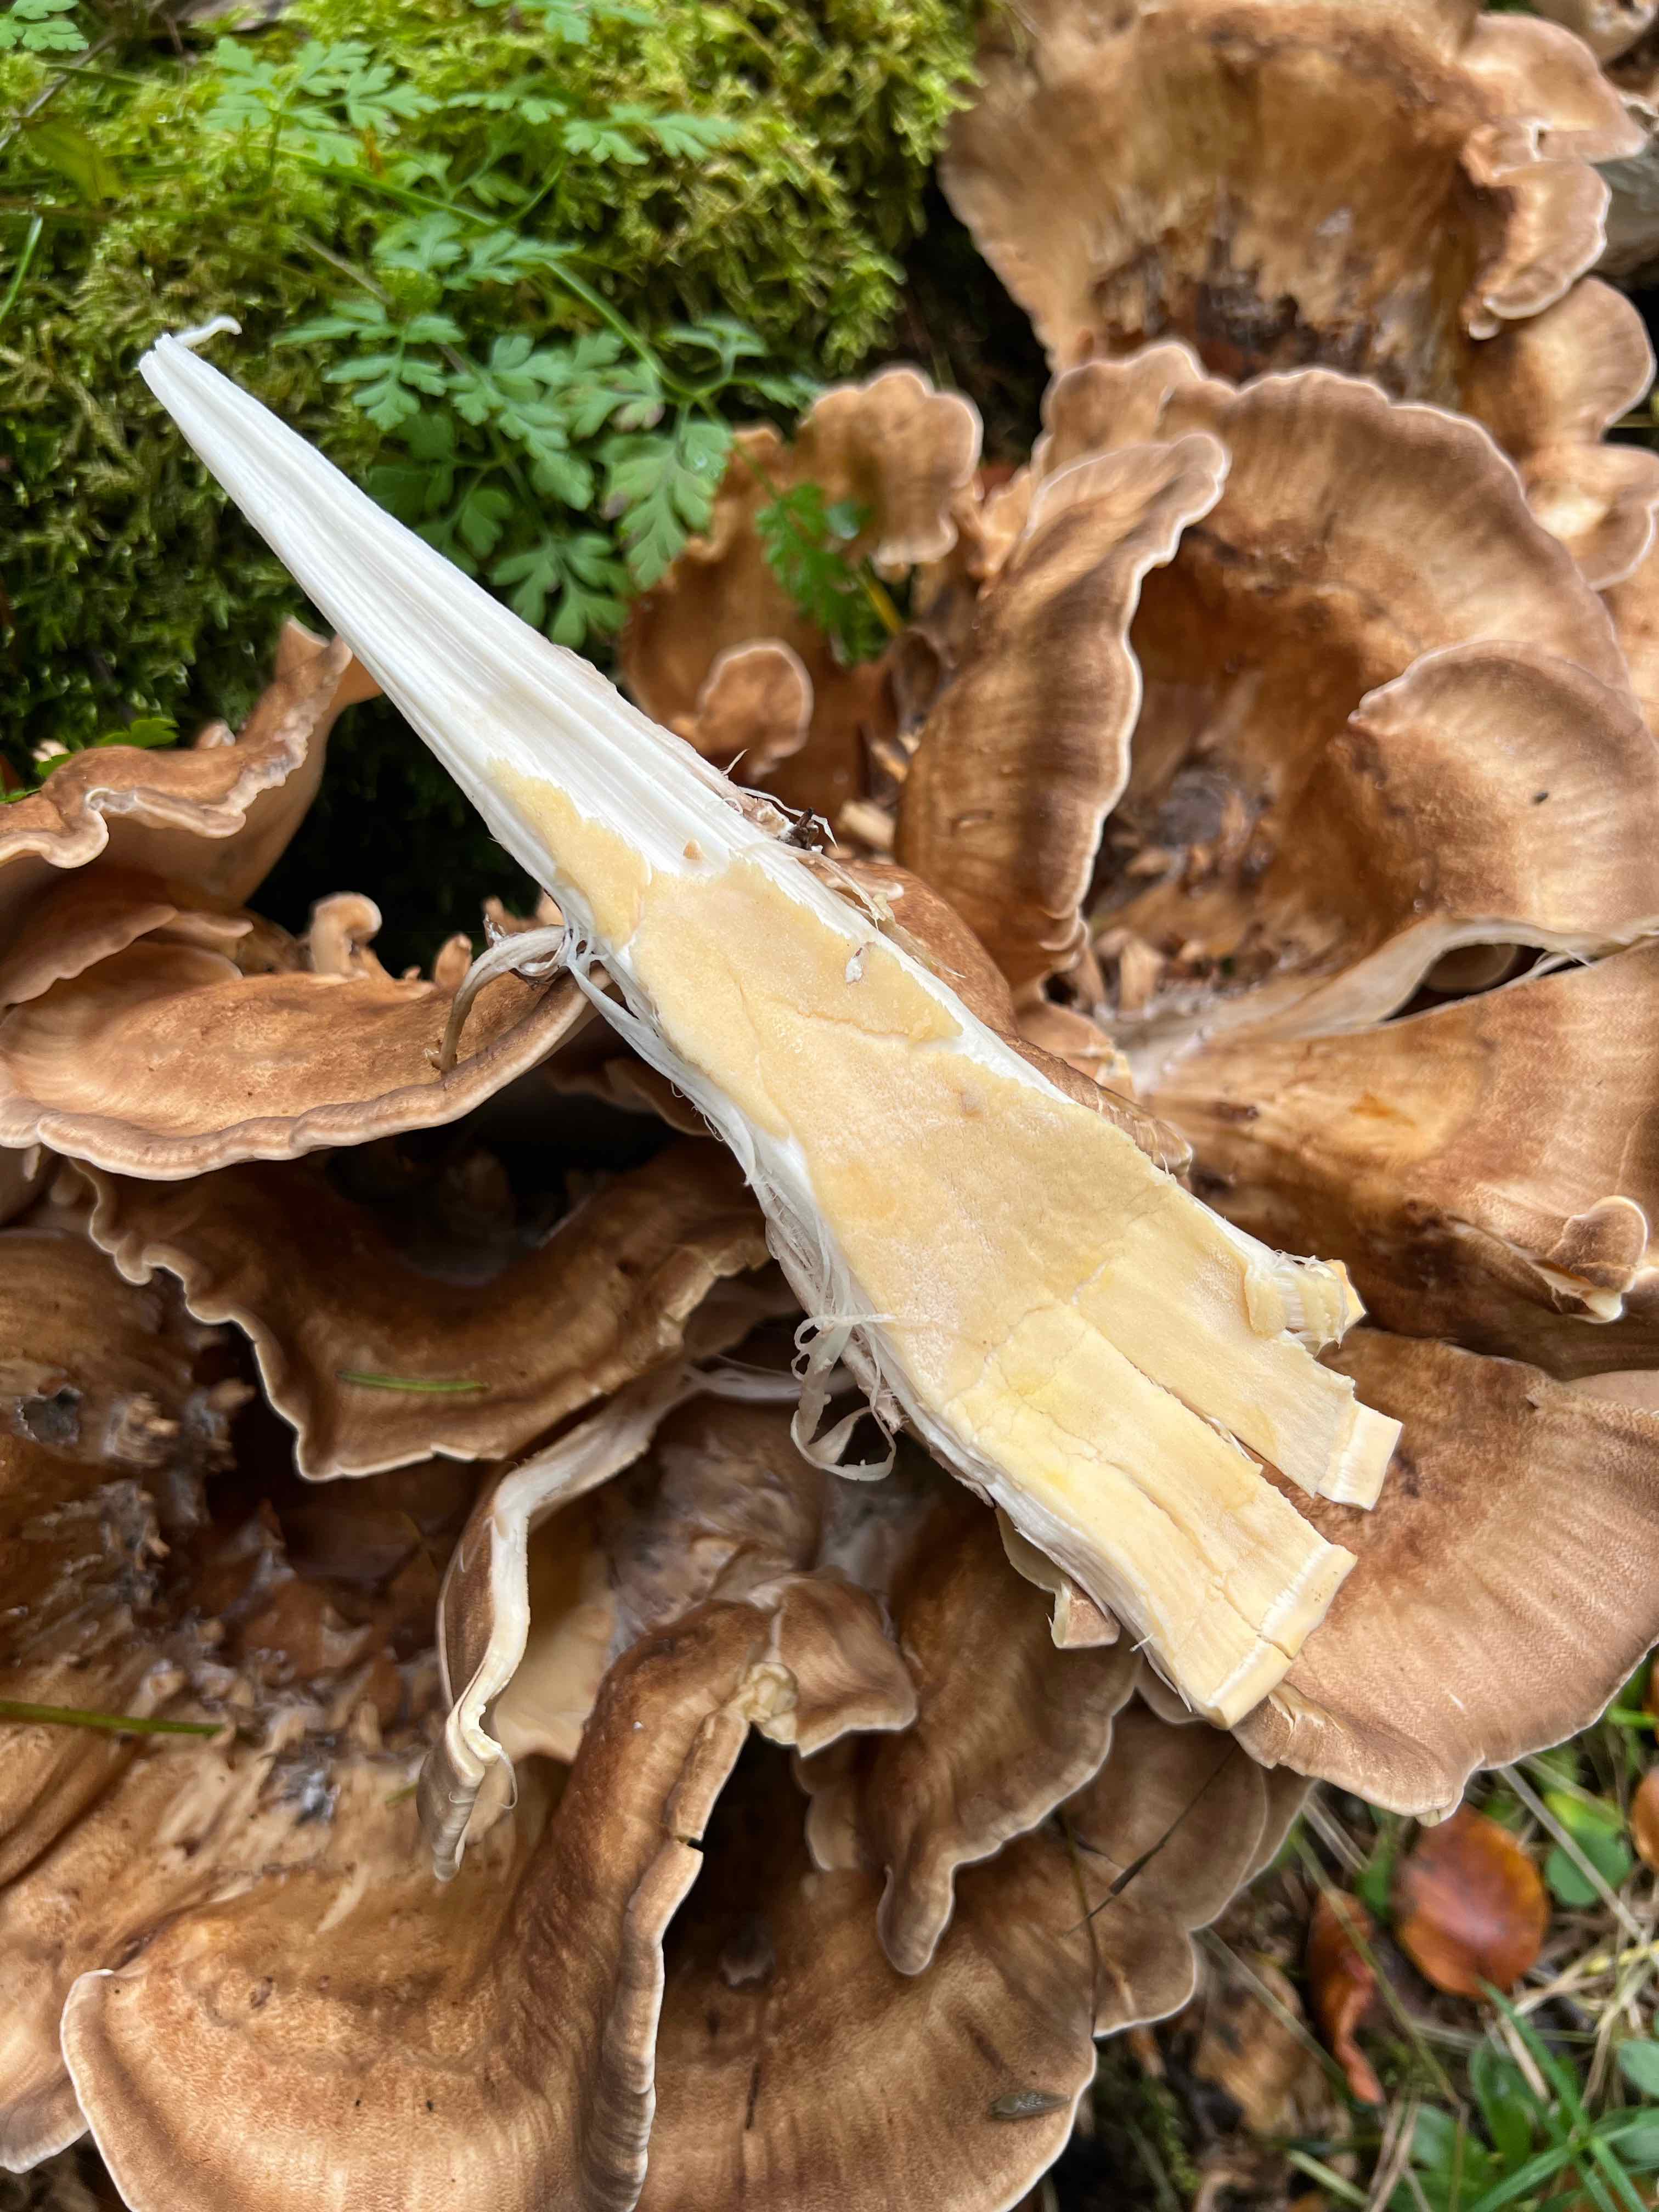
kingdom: Fungi
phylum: Basidiomycota
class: Agaricomycetes
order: Polyporales
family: Meripilaceae
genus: Meripilus
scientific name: Meripilus giganteus
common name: kæmpeporesvamp
